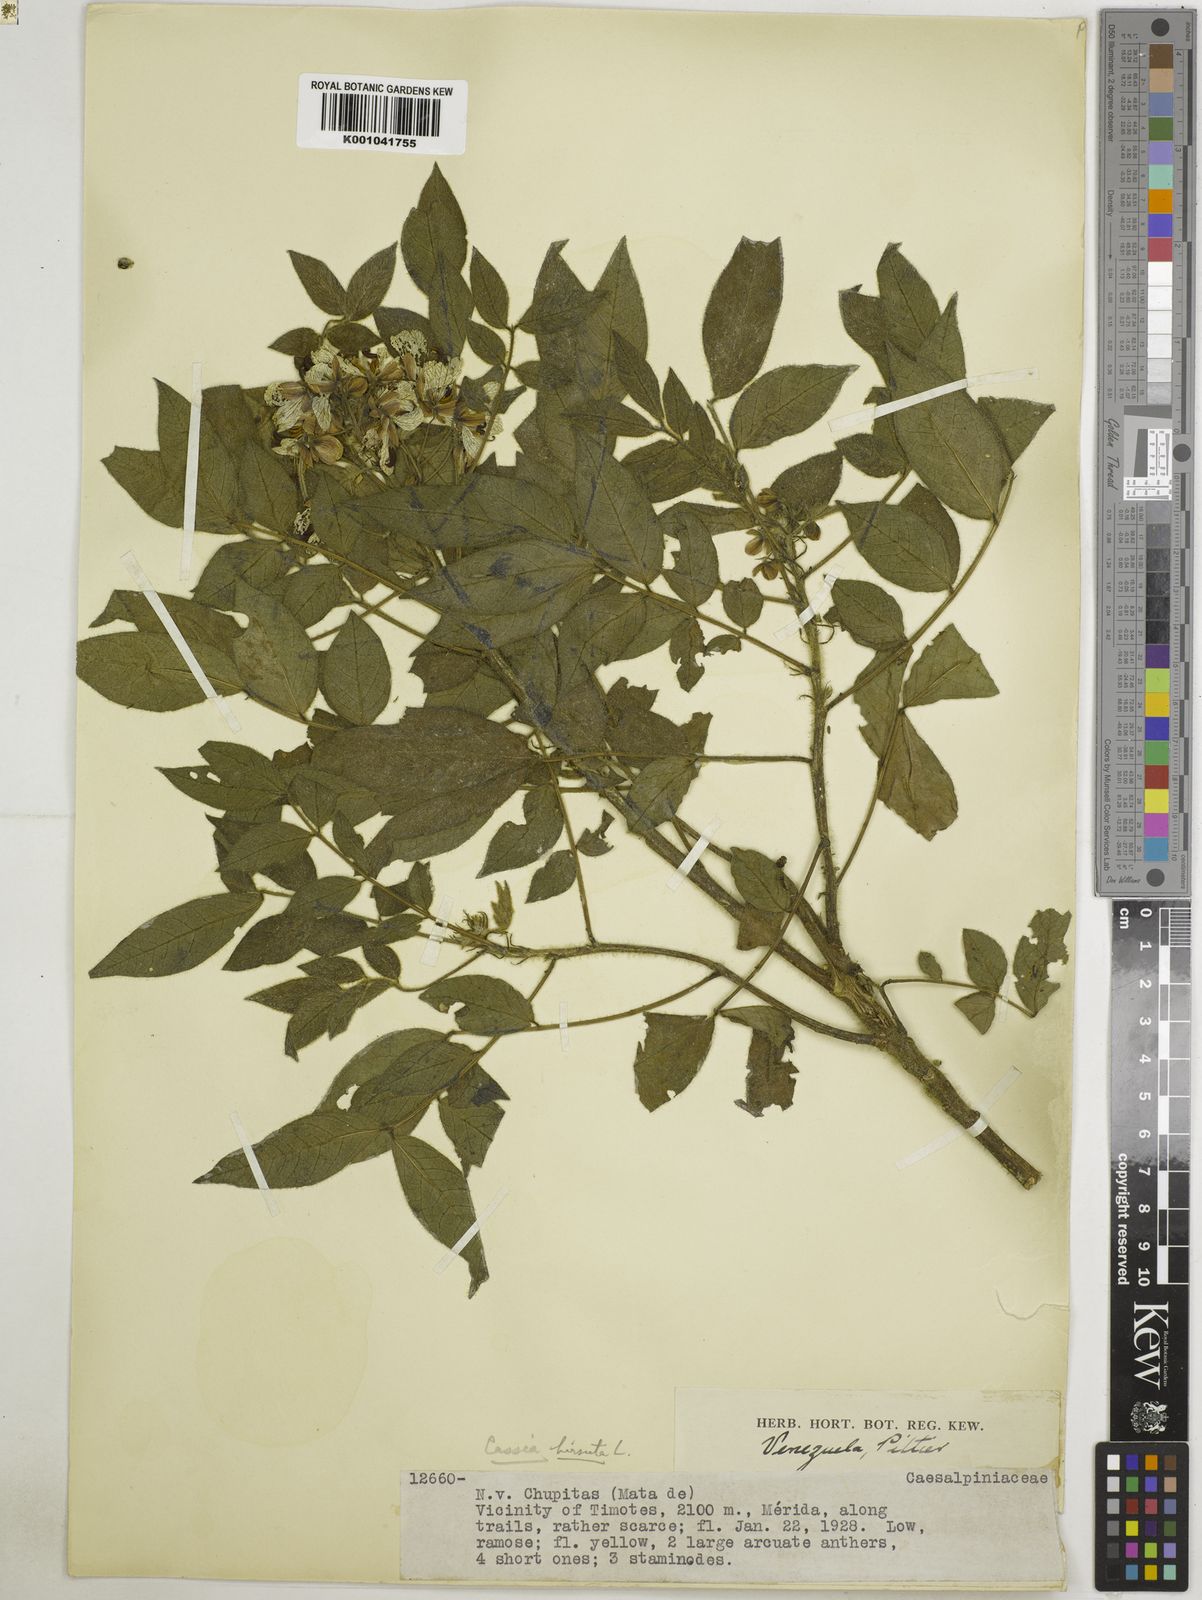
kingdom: Plantae
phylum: Tracheophyta
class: Magnoliopsida
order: Fabales
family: Fabaceae
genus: Senna
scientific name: Senna hirsuta
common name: Woolly senna
